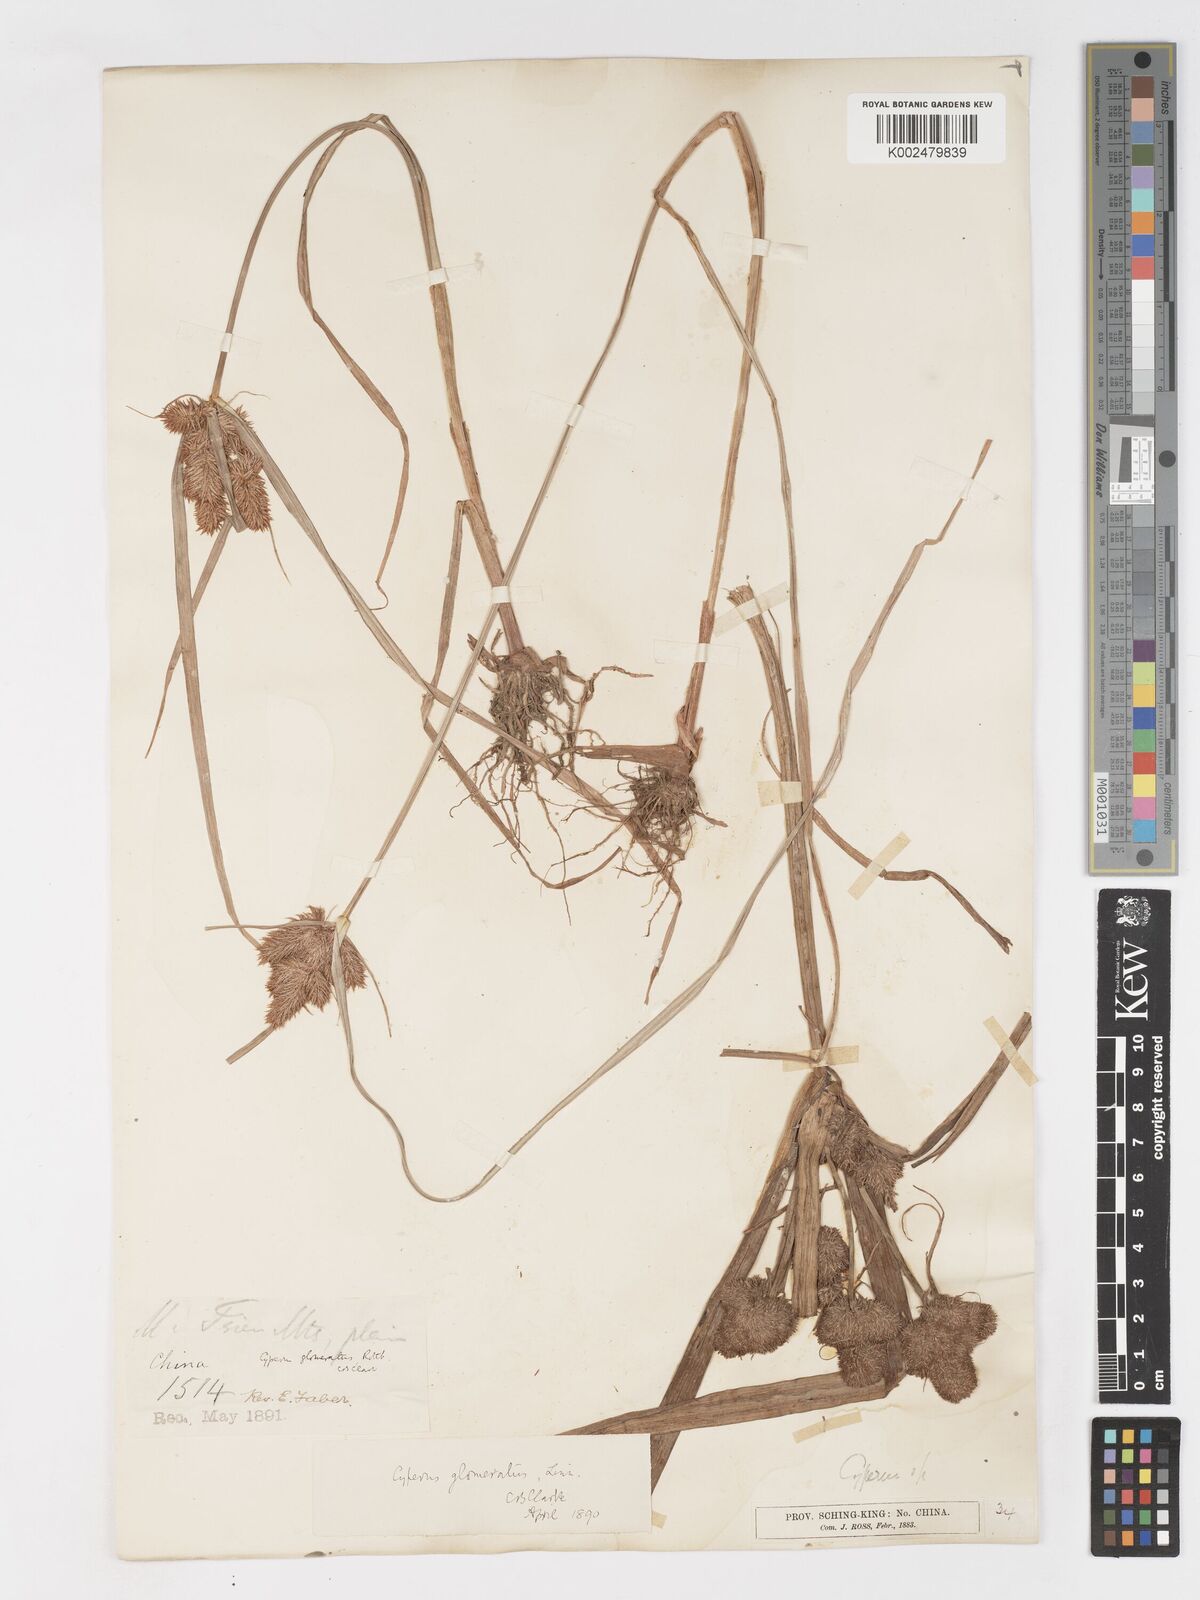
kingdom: Plantae
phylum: Tracheophyta
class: Liliopsida
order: Poales
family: Cyperaceae
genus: Cyperus
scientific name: Cyperus glomeratus
